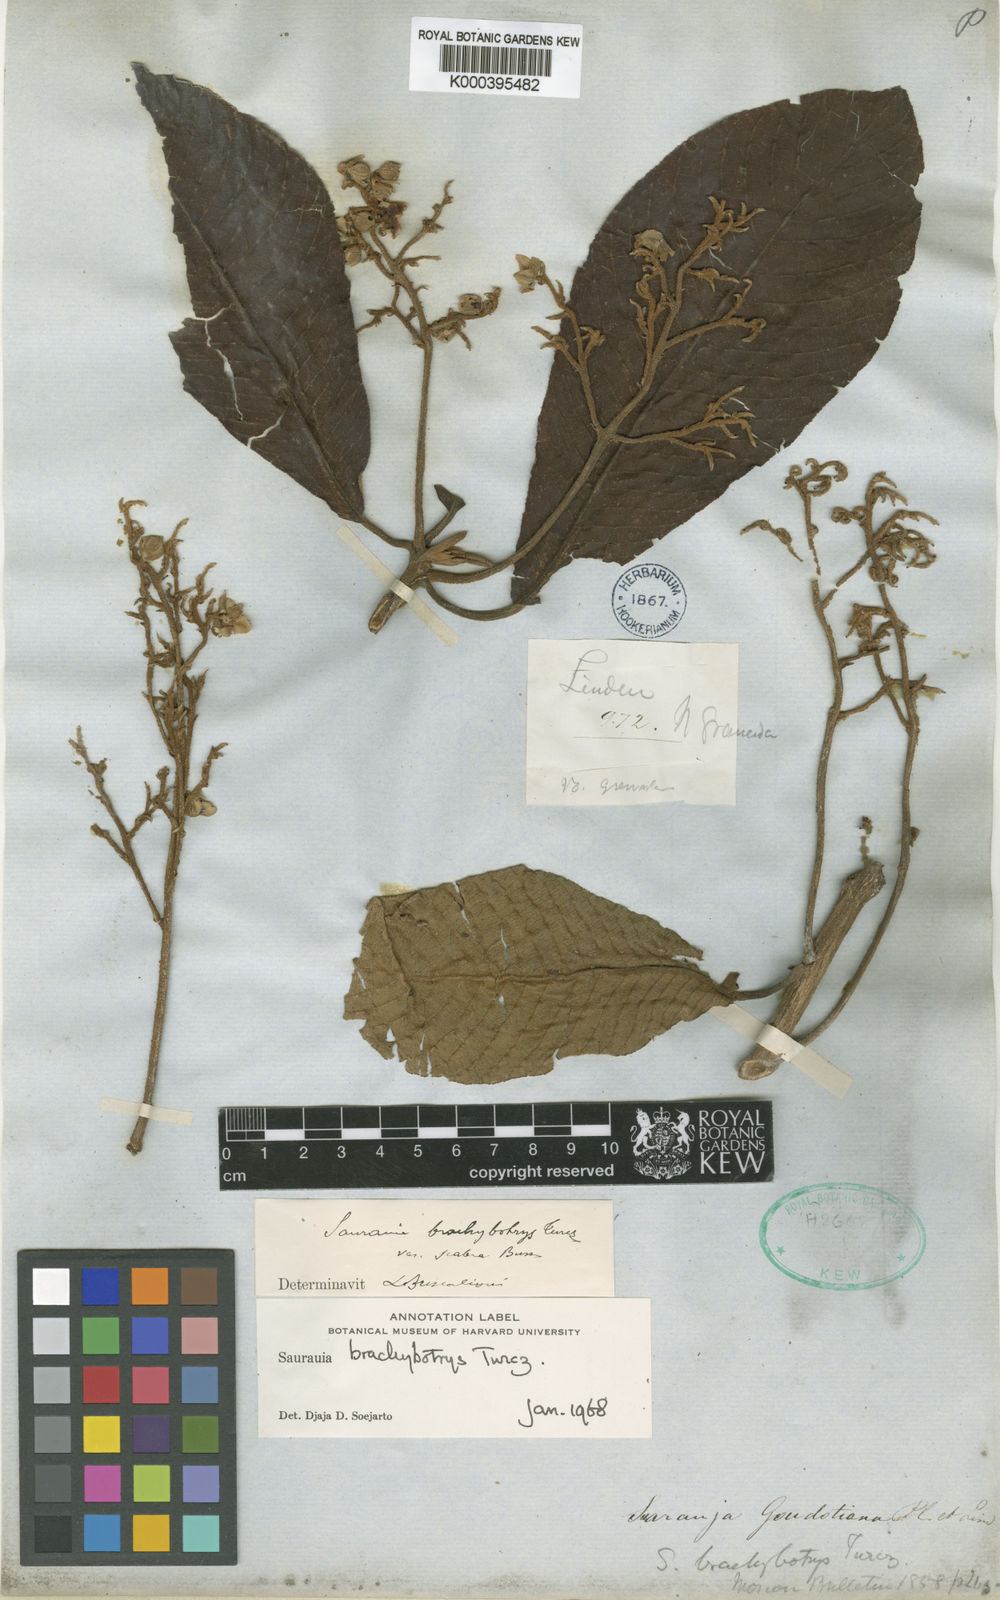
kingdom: Plantae
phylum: Tracheophyta
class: Magnoliopsida
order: Ericales
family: Actinidiaceae
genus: Saurauia
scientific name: Saurauia brachybotrys
